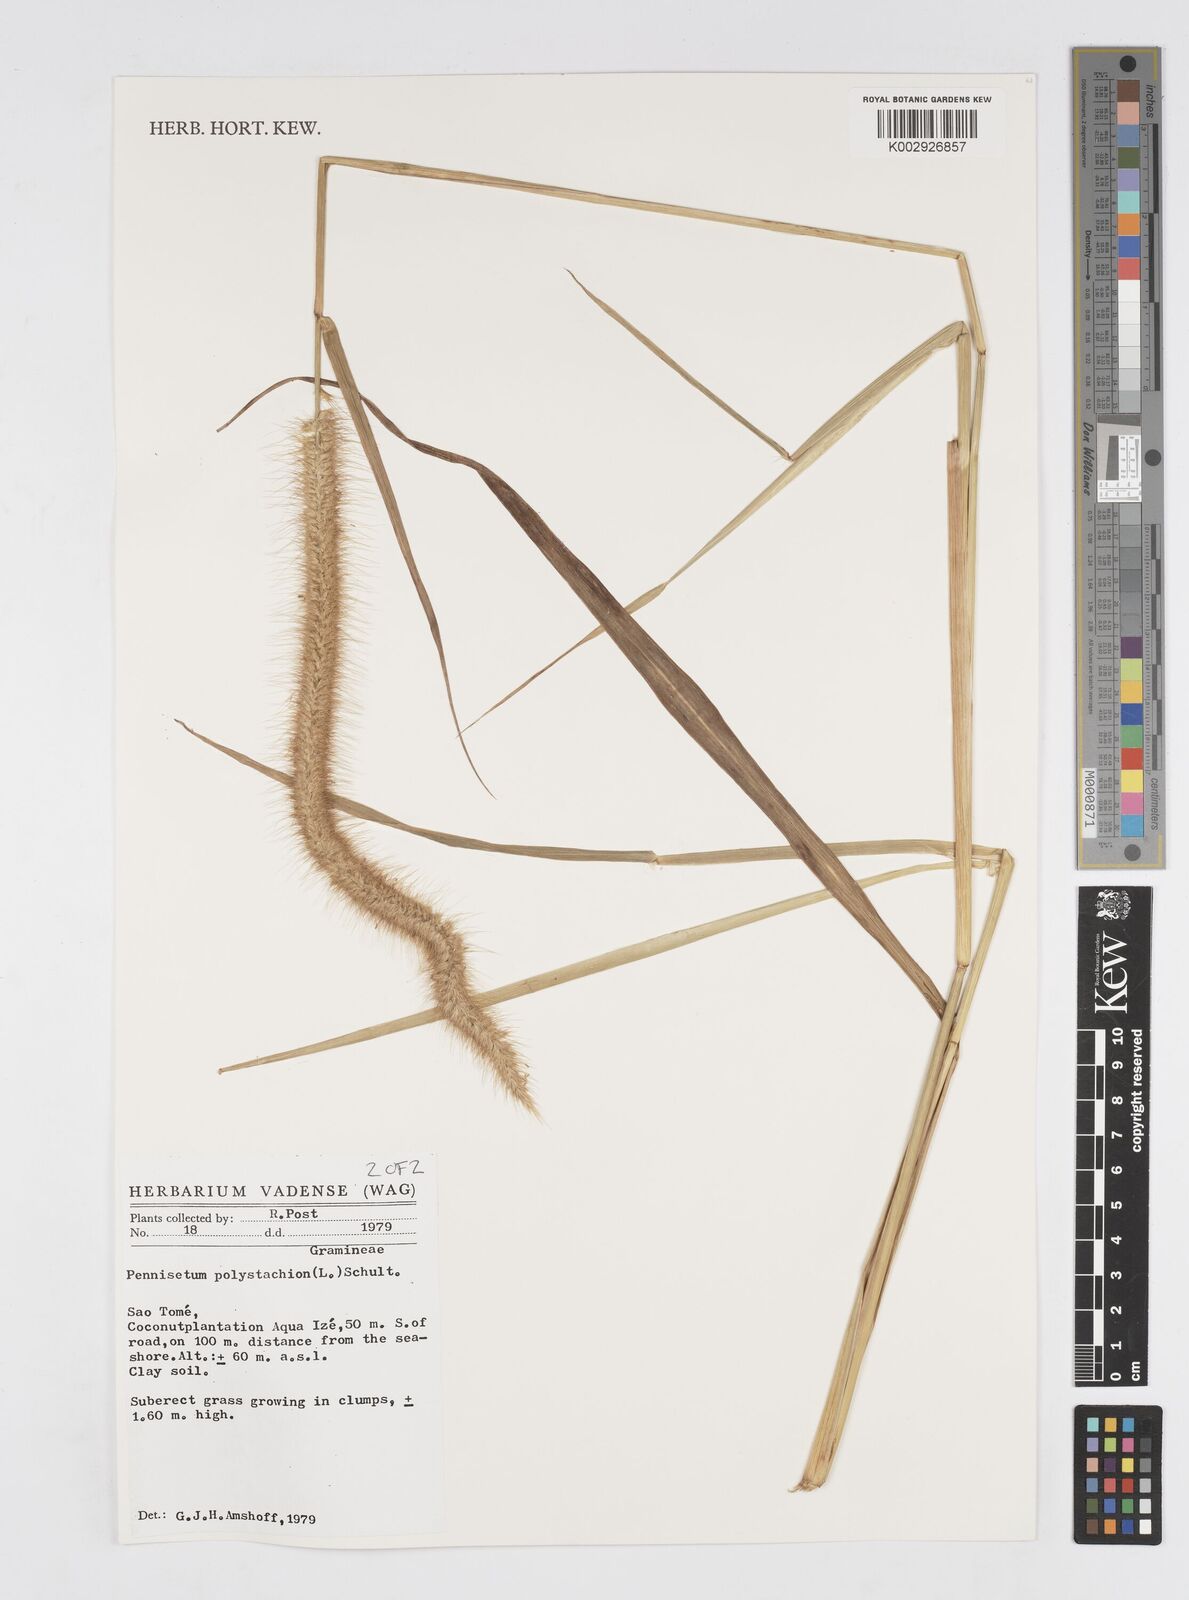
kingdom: Plantae
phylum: Tracheophyta
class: Liliopsida
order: Poales
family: Poaceae
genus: Cenchrus
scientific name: Cenchrus setosus
